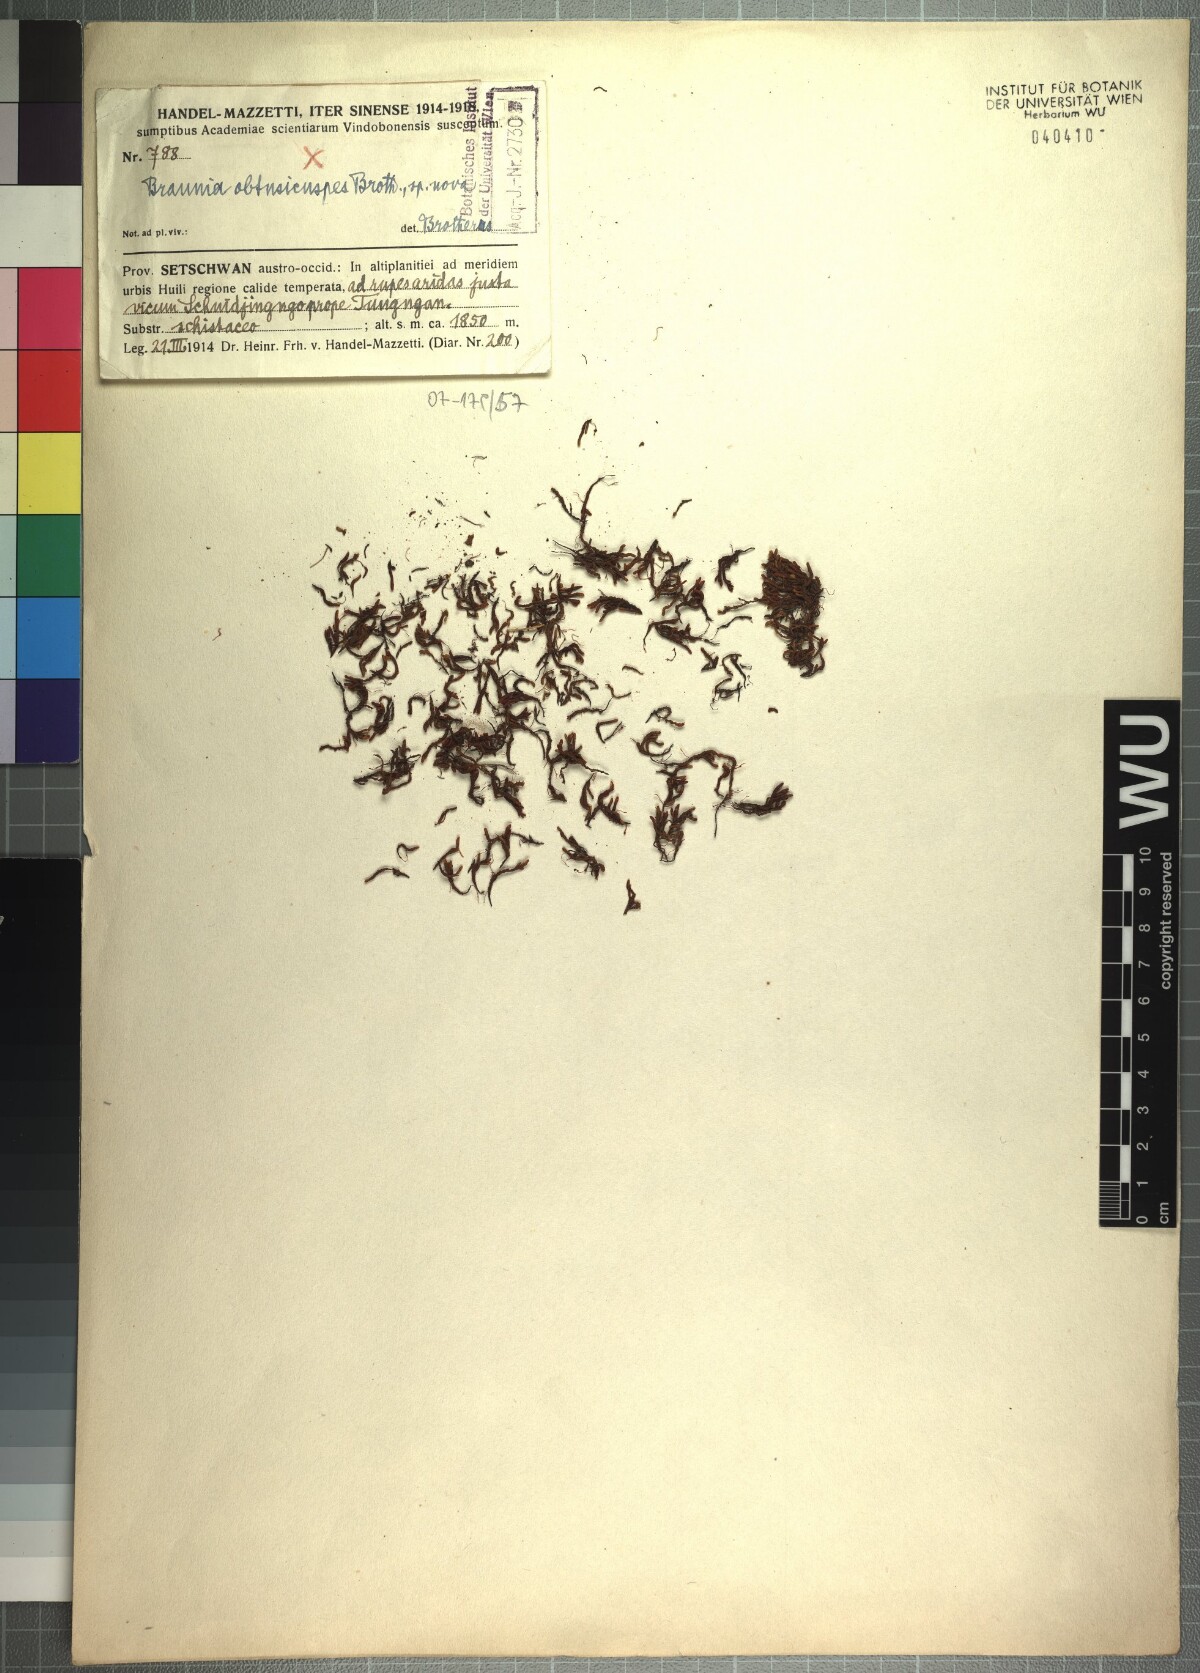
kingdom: Plantae
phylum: Bryophyta
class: Bryopsida
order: Hedwigiales
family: Hedwigiaceae
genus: Braunia
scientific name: Braunia alopecura
